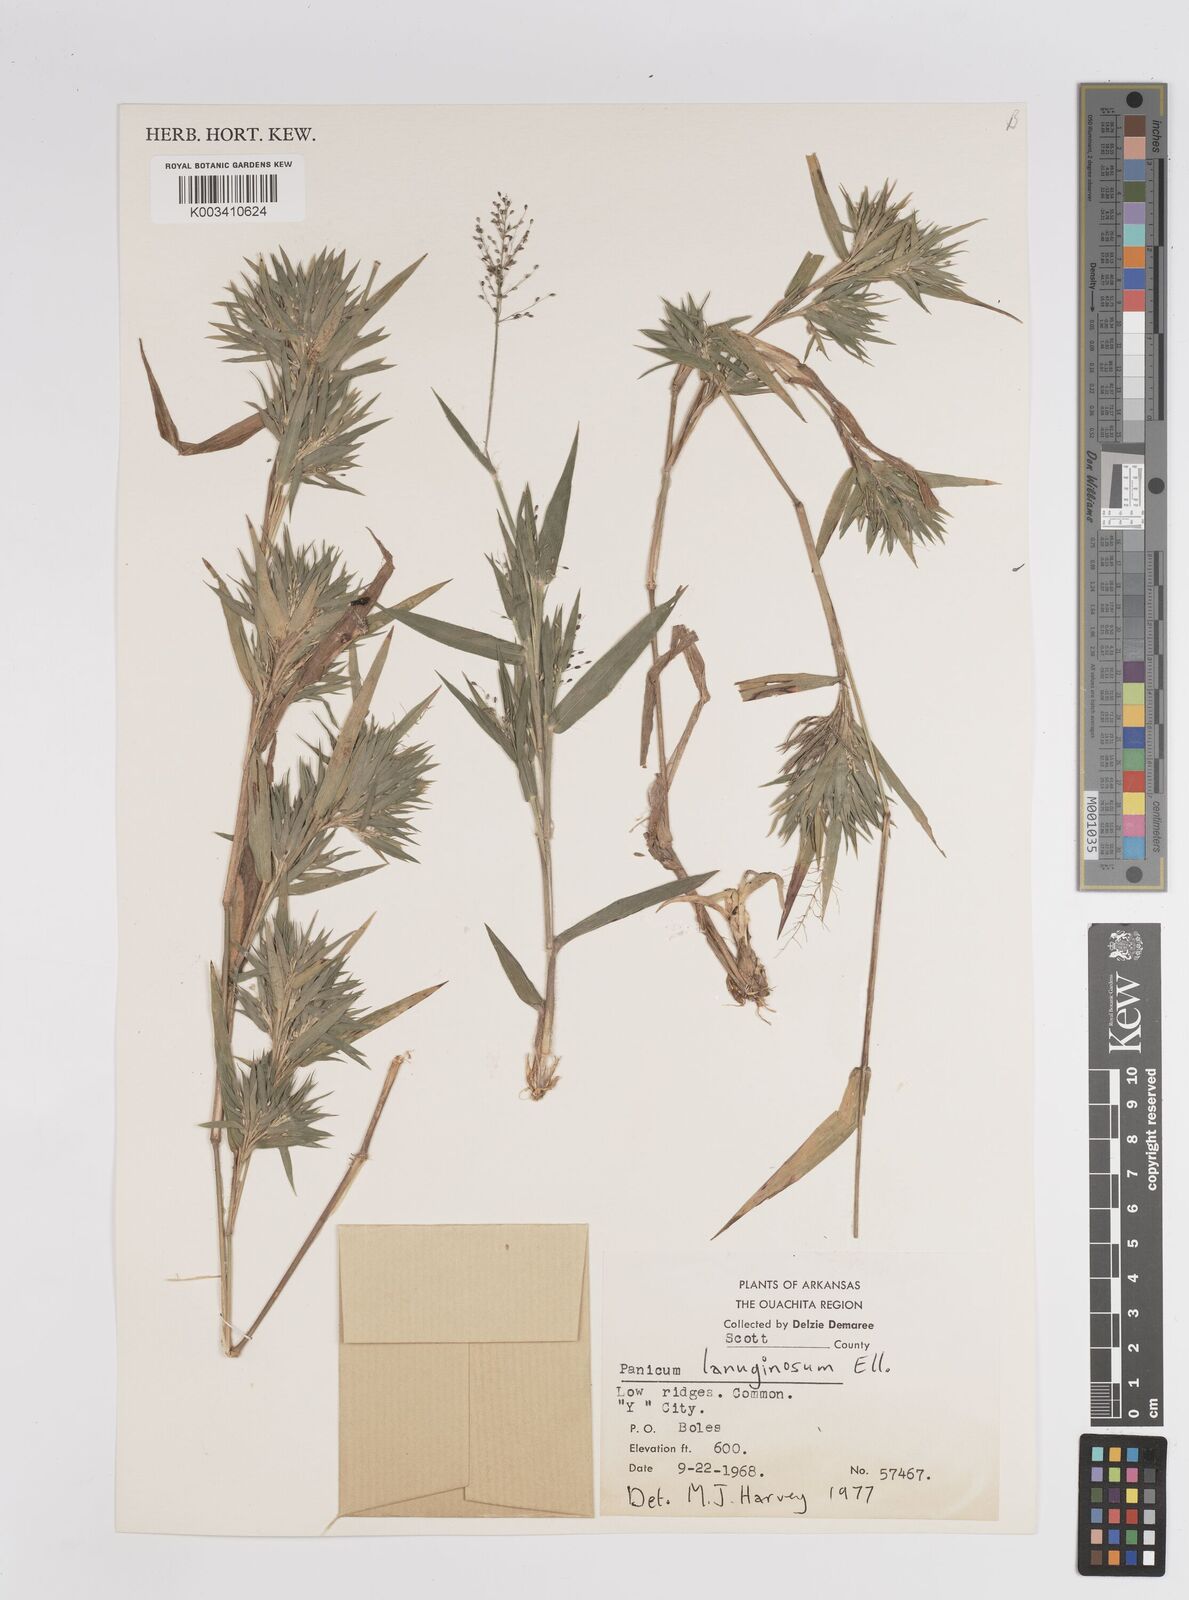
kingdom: Plantae
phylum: Tracheophyta
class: Liliopsida
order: Poales
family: Poaceae
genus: Dichanthelium
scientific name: Dichanthelium lanuginosum
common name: Woolly panicgrass
